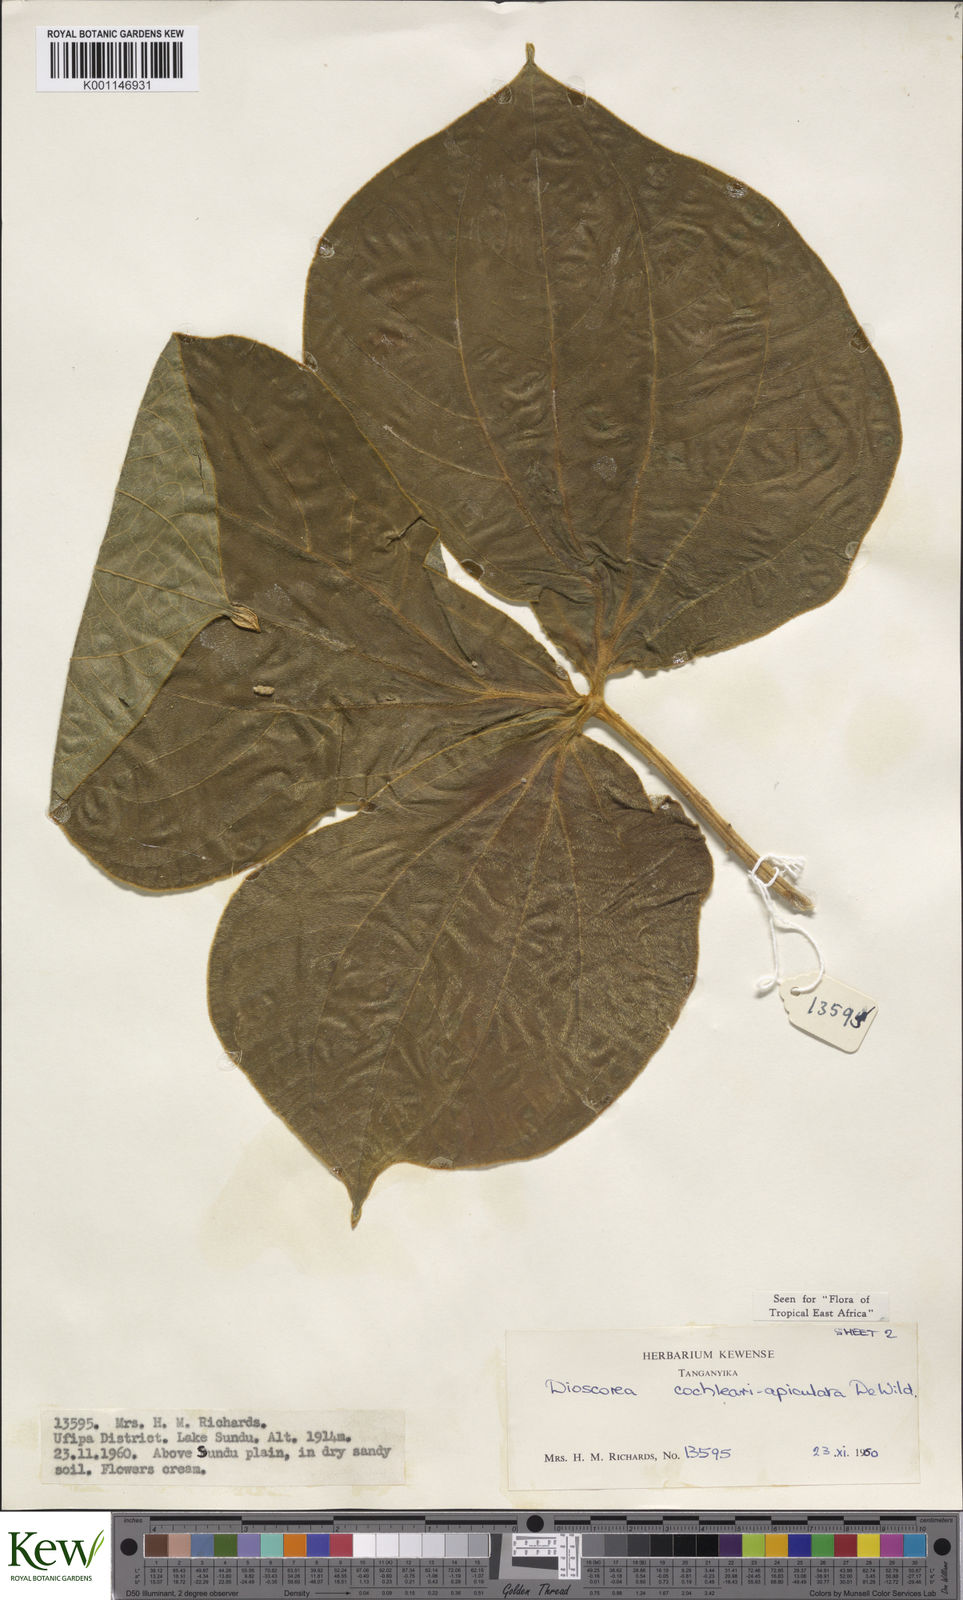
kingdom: Plantae
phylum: Tracheophyta
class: Liliopsida
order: Dioscoreales
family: Dioscoreaceae
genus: Dioscorea
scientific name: Dioscorea cochleariapiculata
